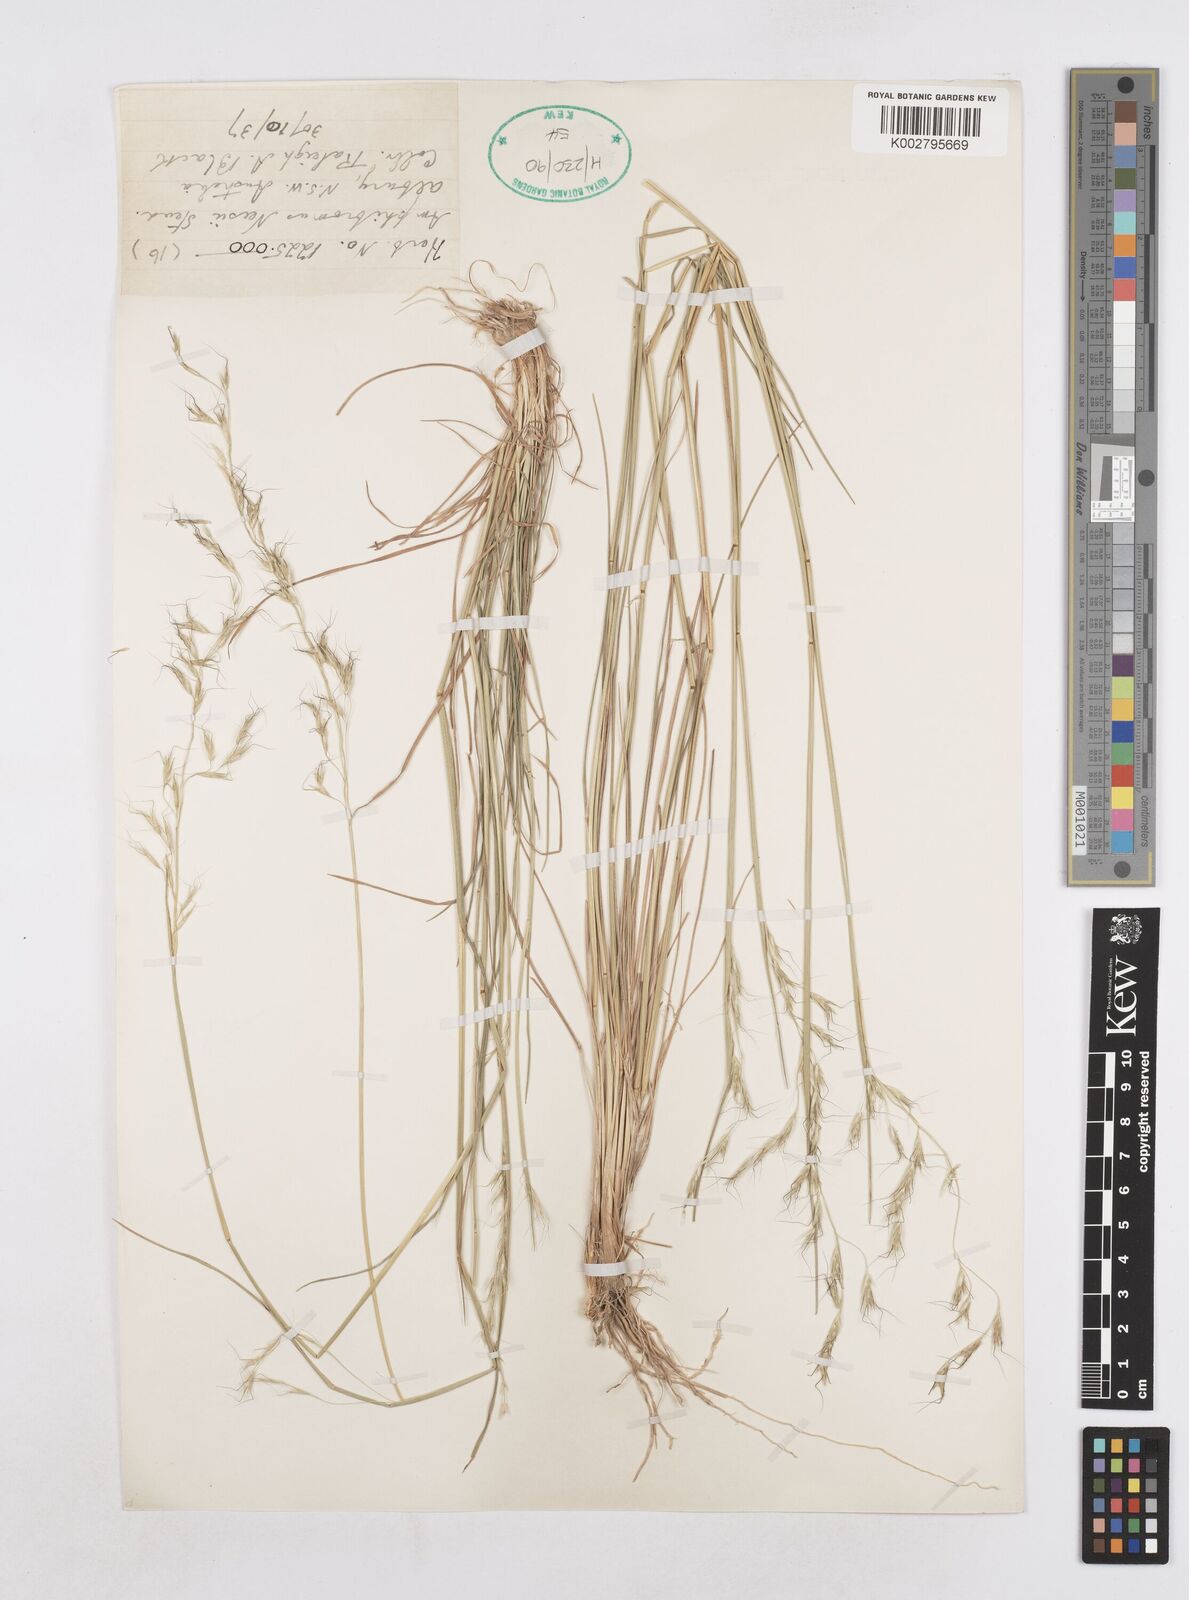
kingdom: Plantae
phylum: Tracheophyta
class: Liliopsida
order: Poales
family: Poaceae
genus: Amphibromus
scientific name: Amphibromus neesii
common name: Australian wallaby grass
